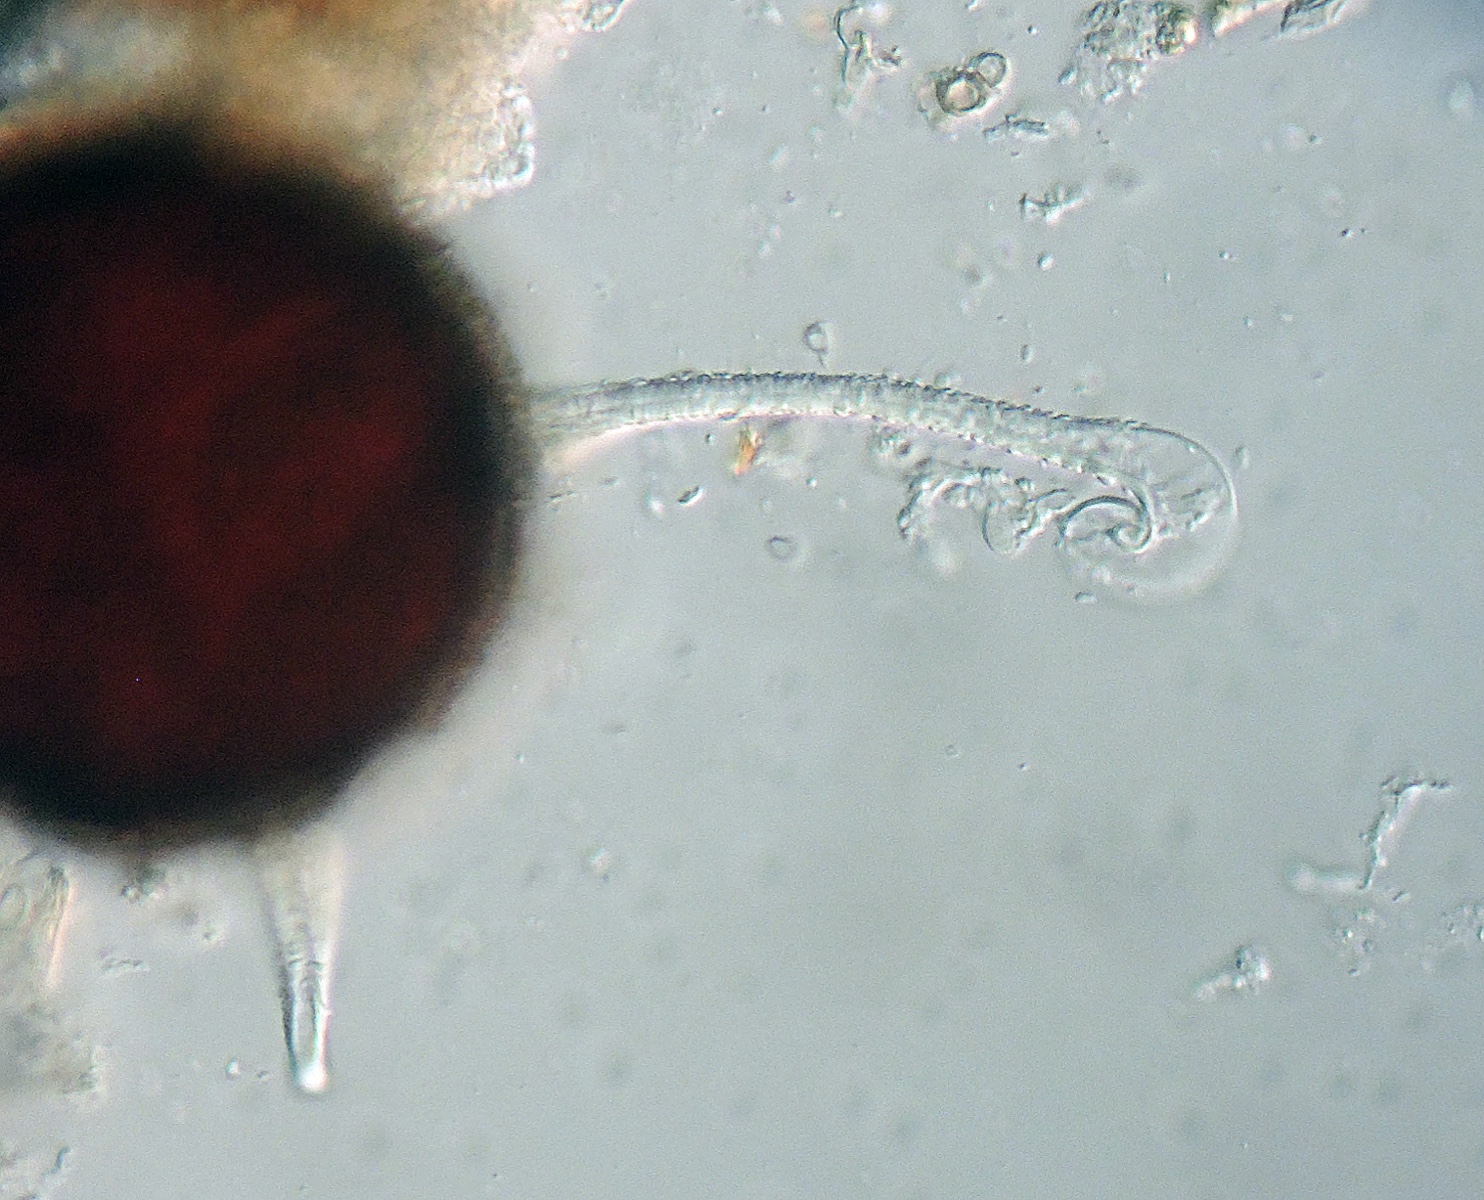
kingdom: Fungi
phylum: Ascomycota
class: Leotiomycetes
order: Helotiales
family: Erysiphaceae
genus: Erysiphe
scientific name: Erysiphe ulmi
